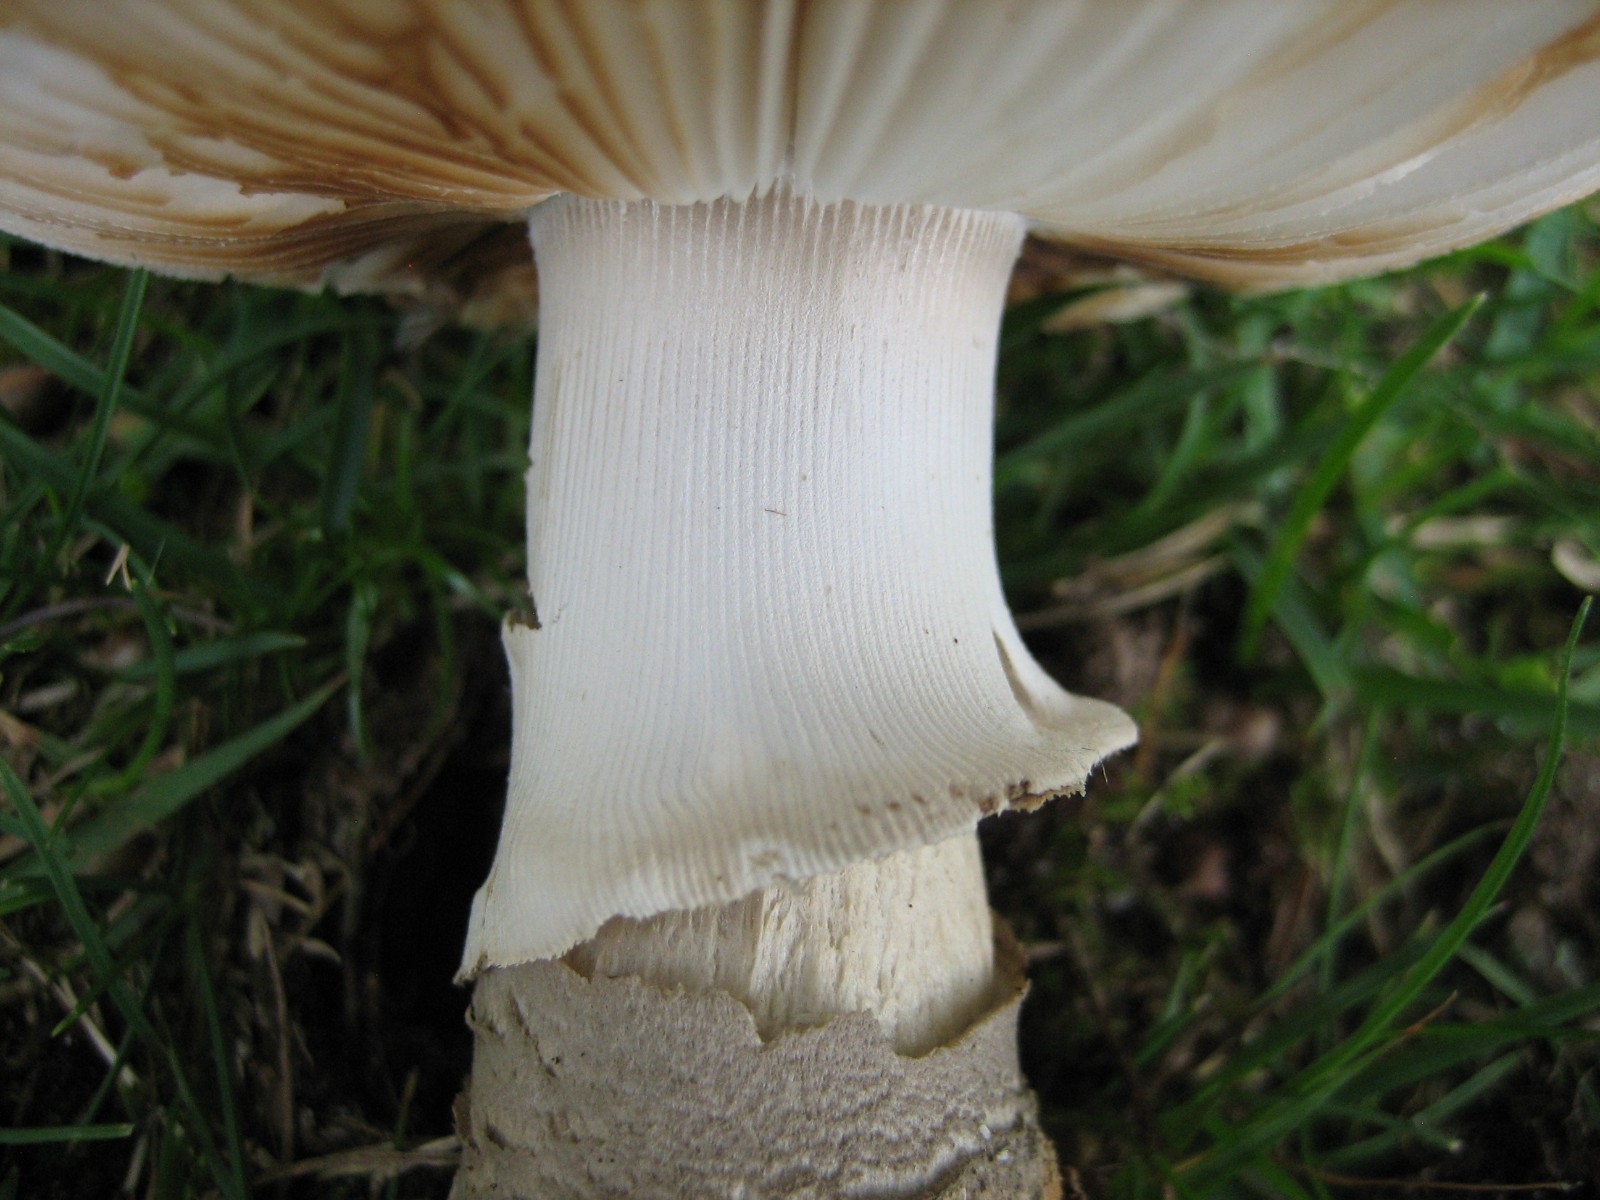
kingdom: Fungi
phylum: Basidiomycota
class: Agaricomycetes
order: Agaricales
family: Amanitaceae
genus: Amanita
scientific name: Amanita rubescens
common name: rødmende fluesvamp
